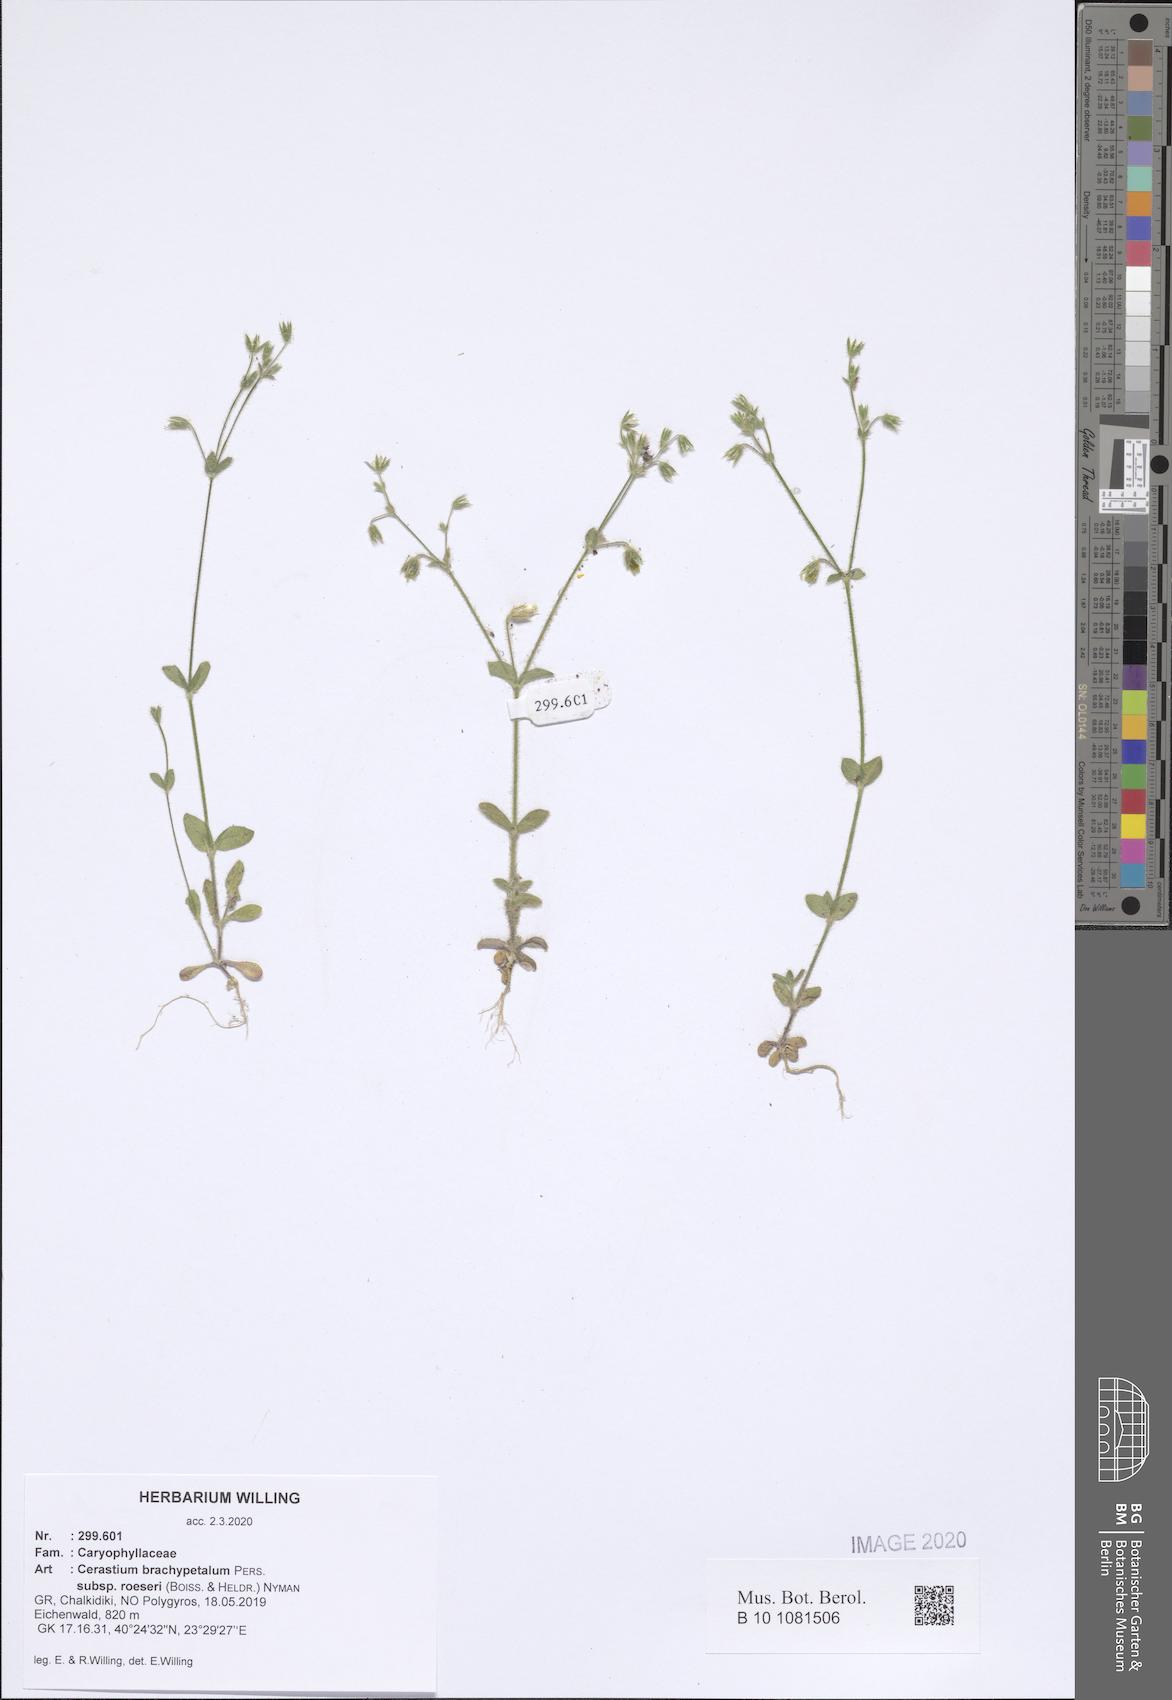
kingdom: Plantae
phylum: Tracheophyta
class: Magnoliopsida
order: Caryophyllales
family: Caryophyllaceae
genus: Cerastium
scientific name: Cerastium brachypetalum
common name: Grey mouse-ear
